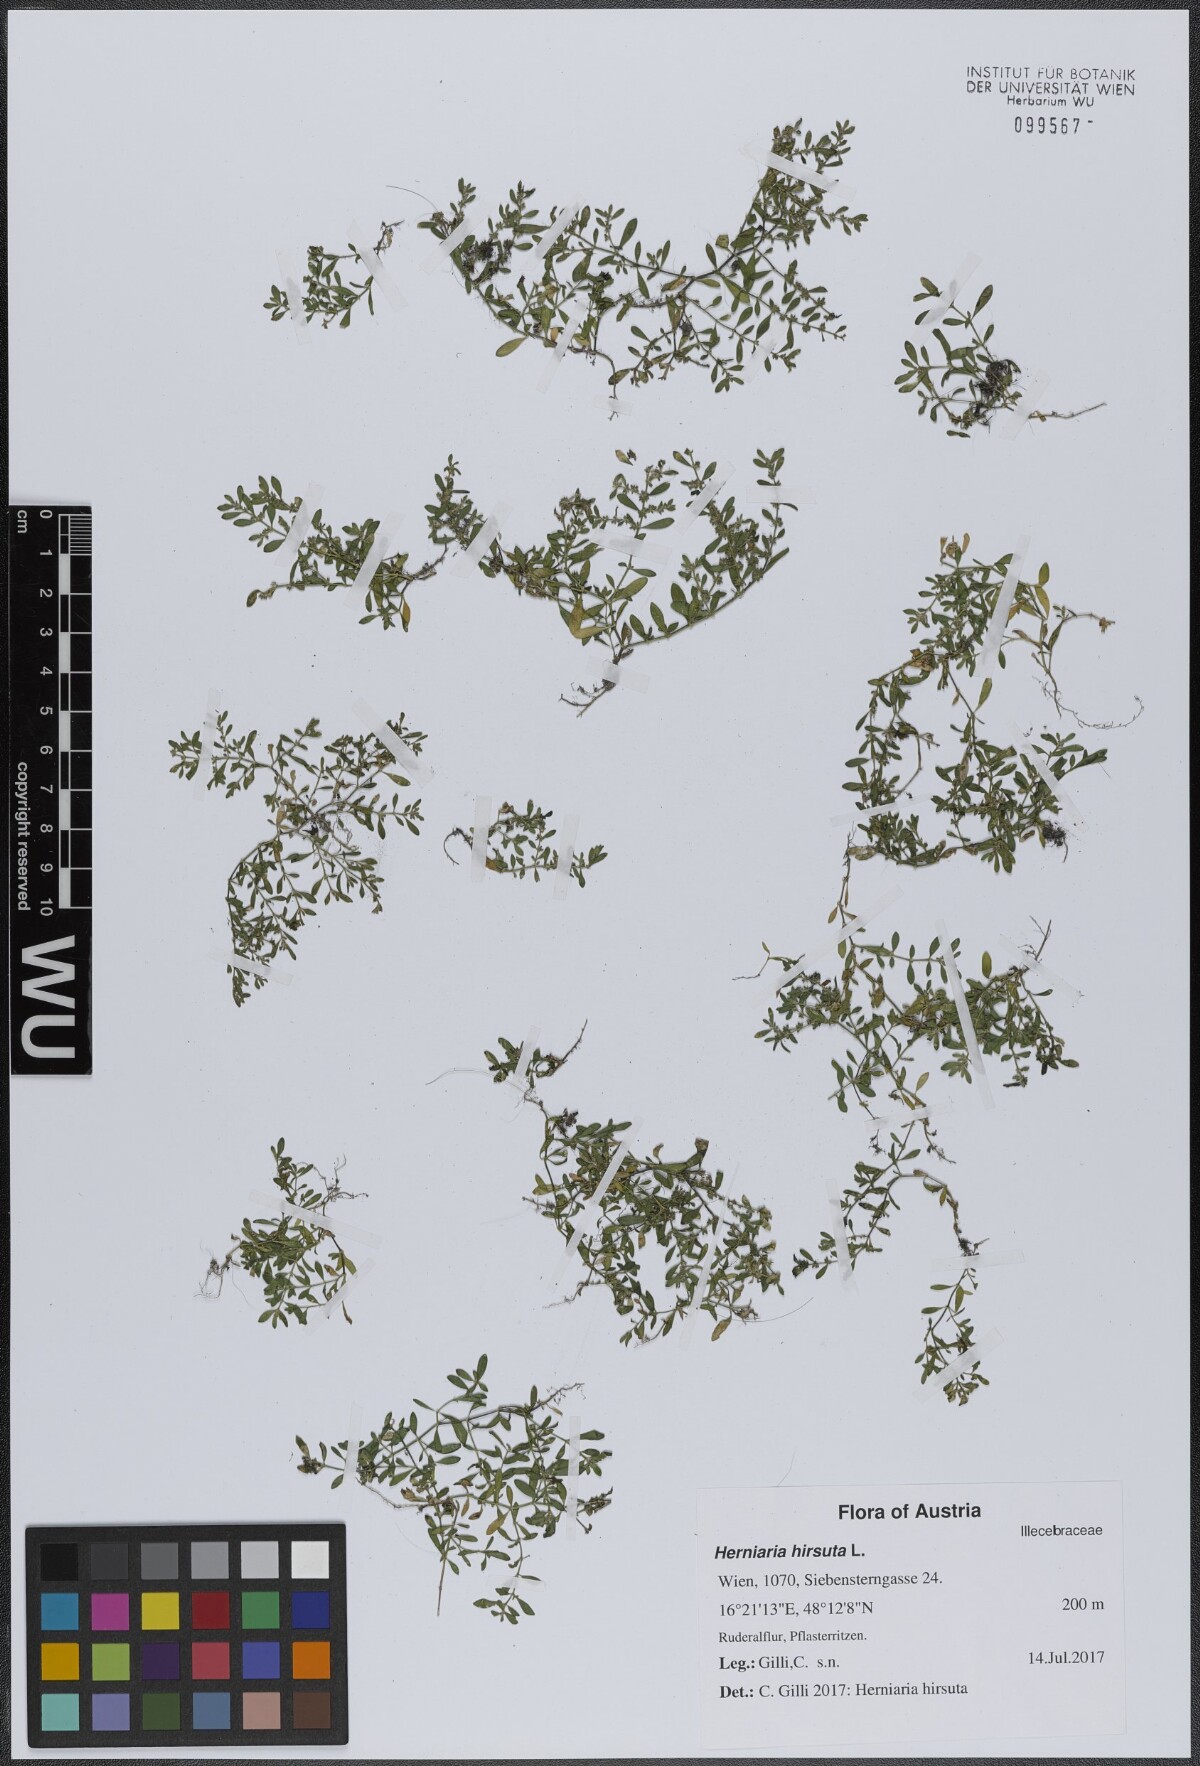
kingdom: Plantae
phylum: Tracheophyta
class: Magnoliopsida
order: Caryophyllales
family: Caryophyllaceae
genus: Herniaria
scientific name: Herniaria hirsuta
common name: Hairy rupturewort
